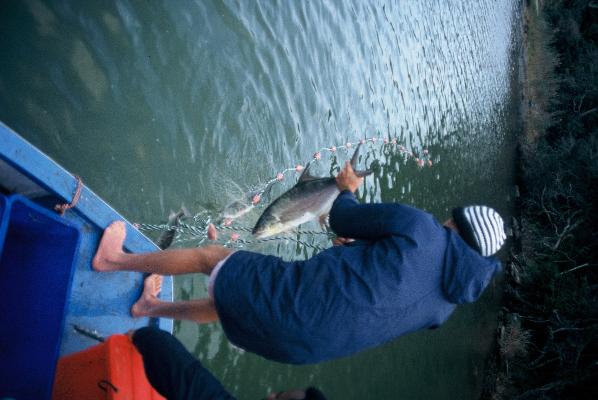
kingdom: Animalia
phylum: Chordata
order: Perciformes
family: Carangidae
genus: Lichia
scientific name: Lichia amia
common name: Leerfish
